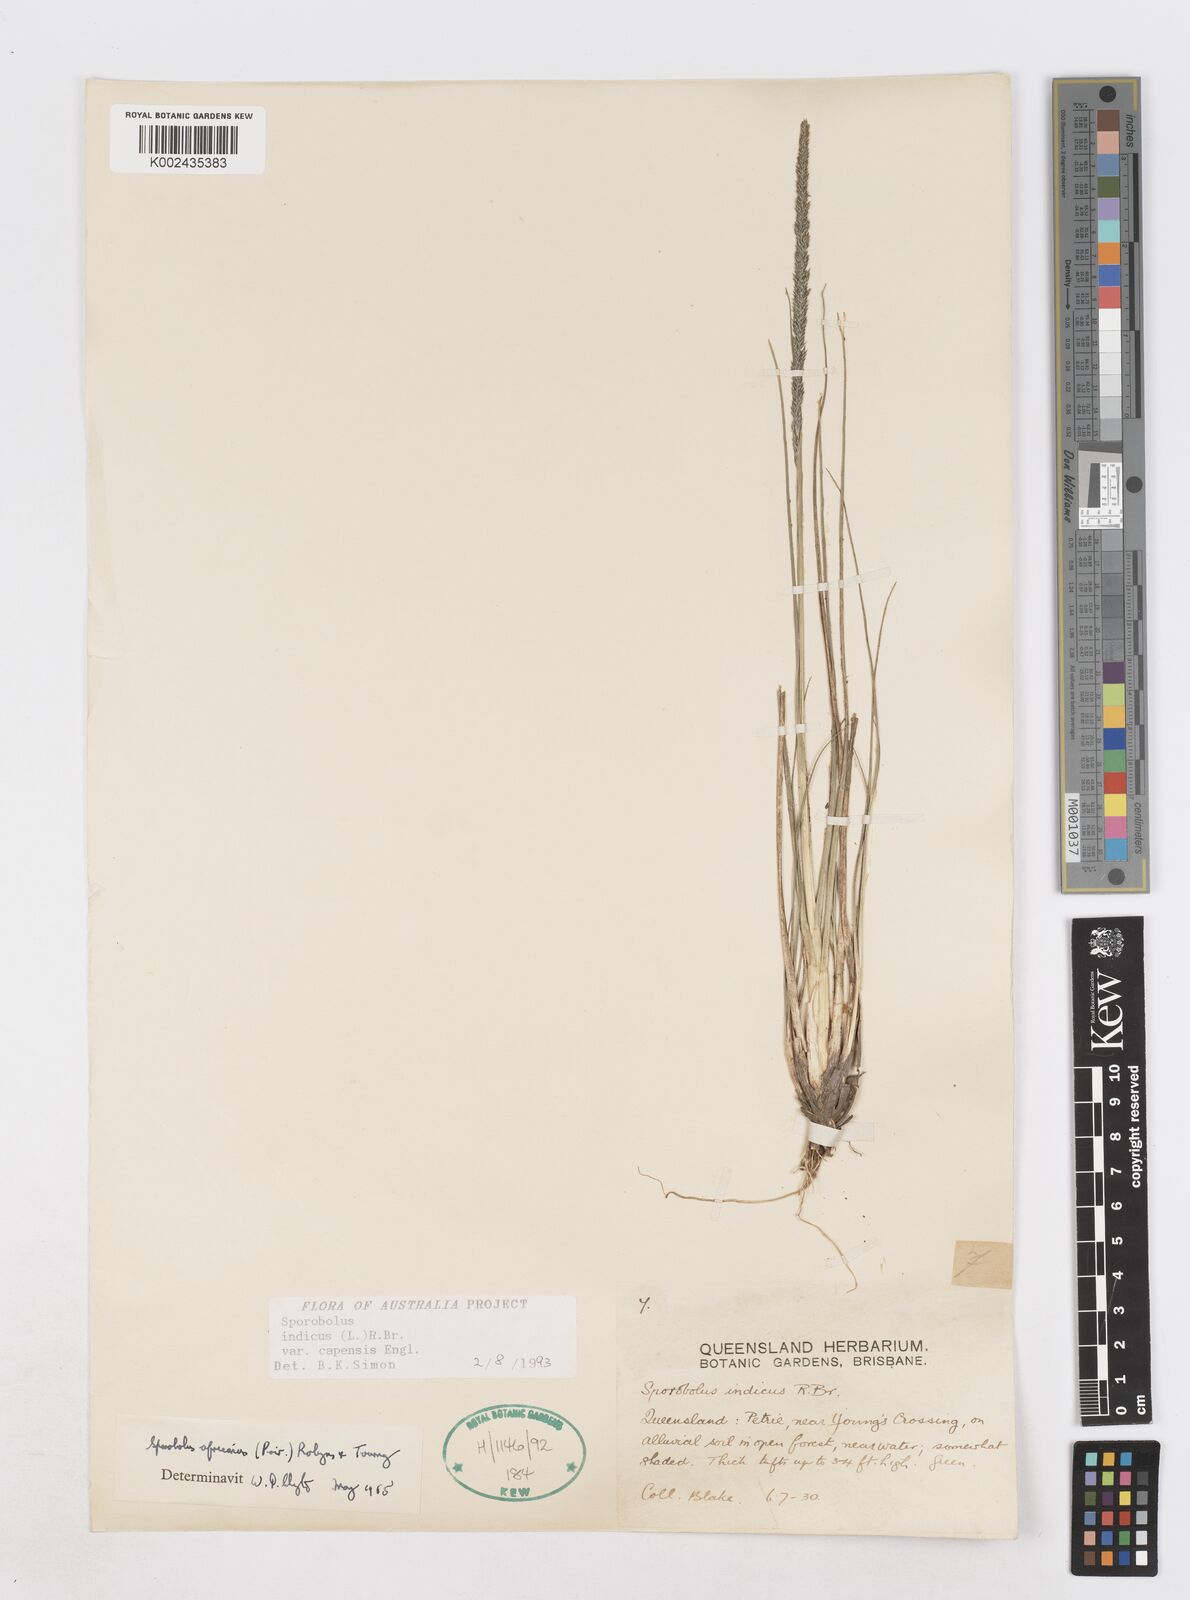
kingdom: Plantae
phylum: Tracheophyta
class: Liliopsida
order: Poales
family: Poaceae
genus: Sporobolus
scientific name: Sporobolus africanus
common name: African dropseed
